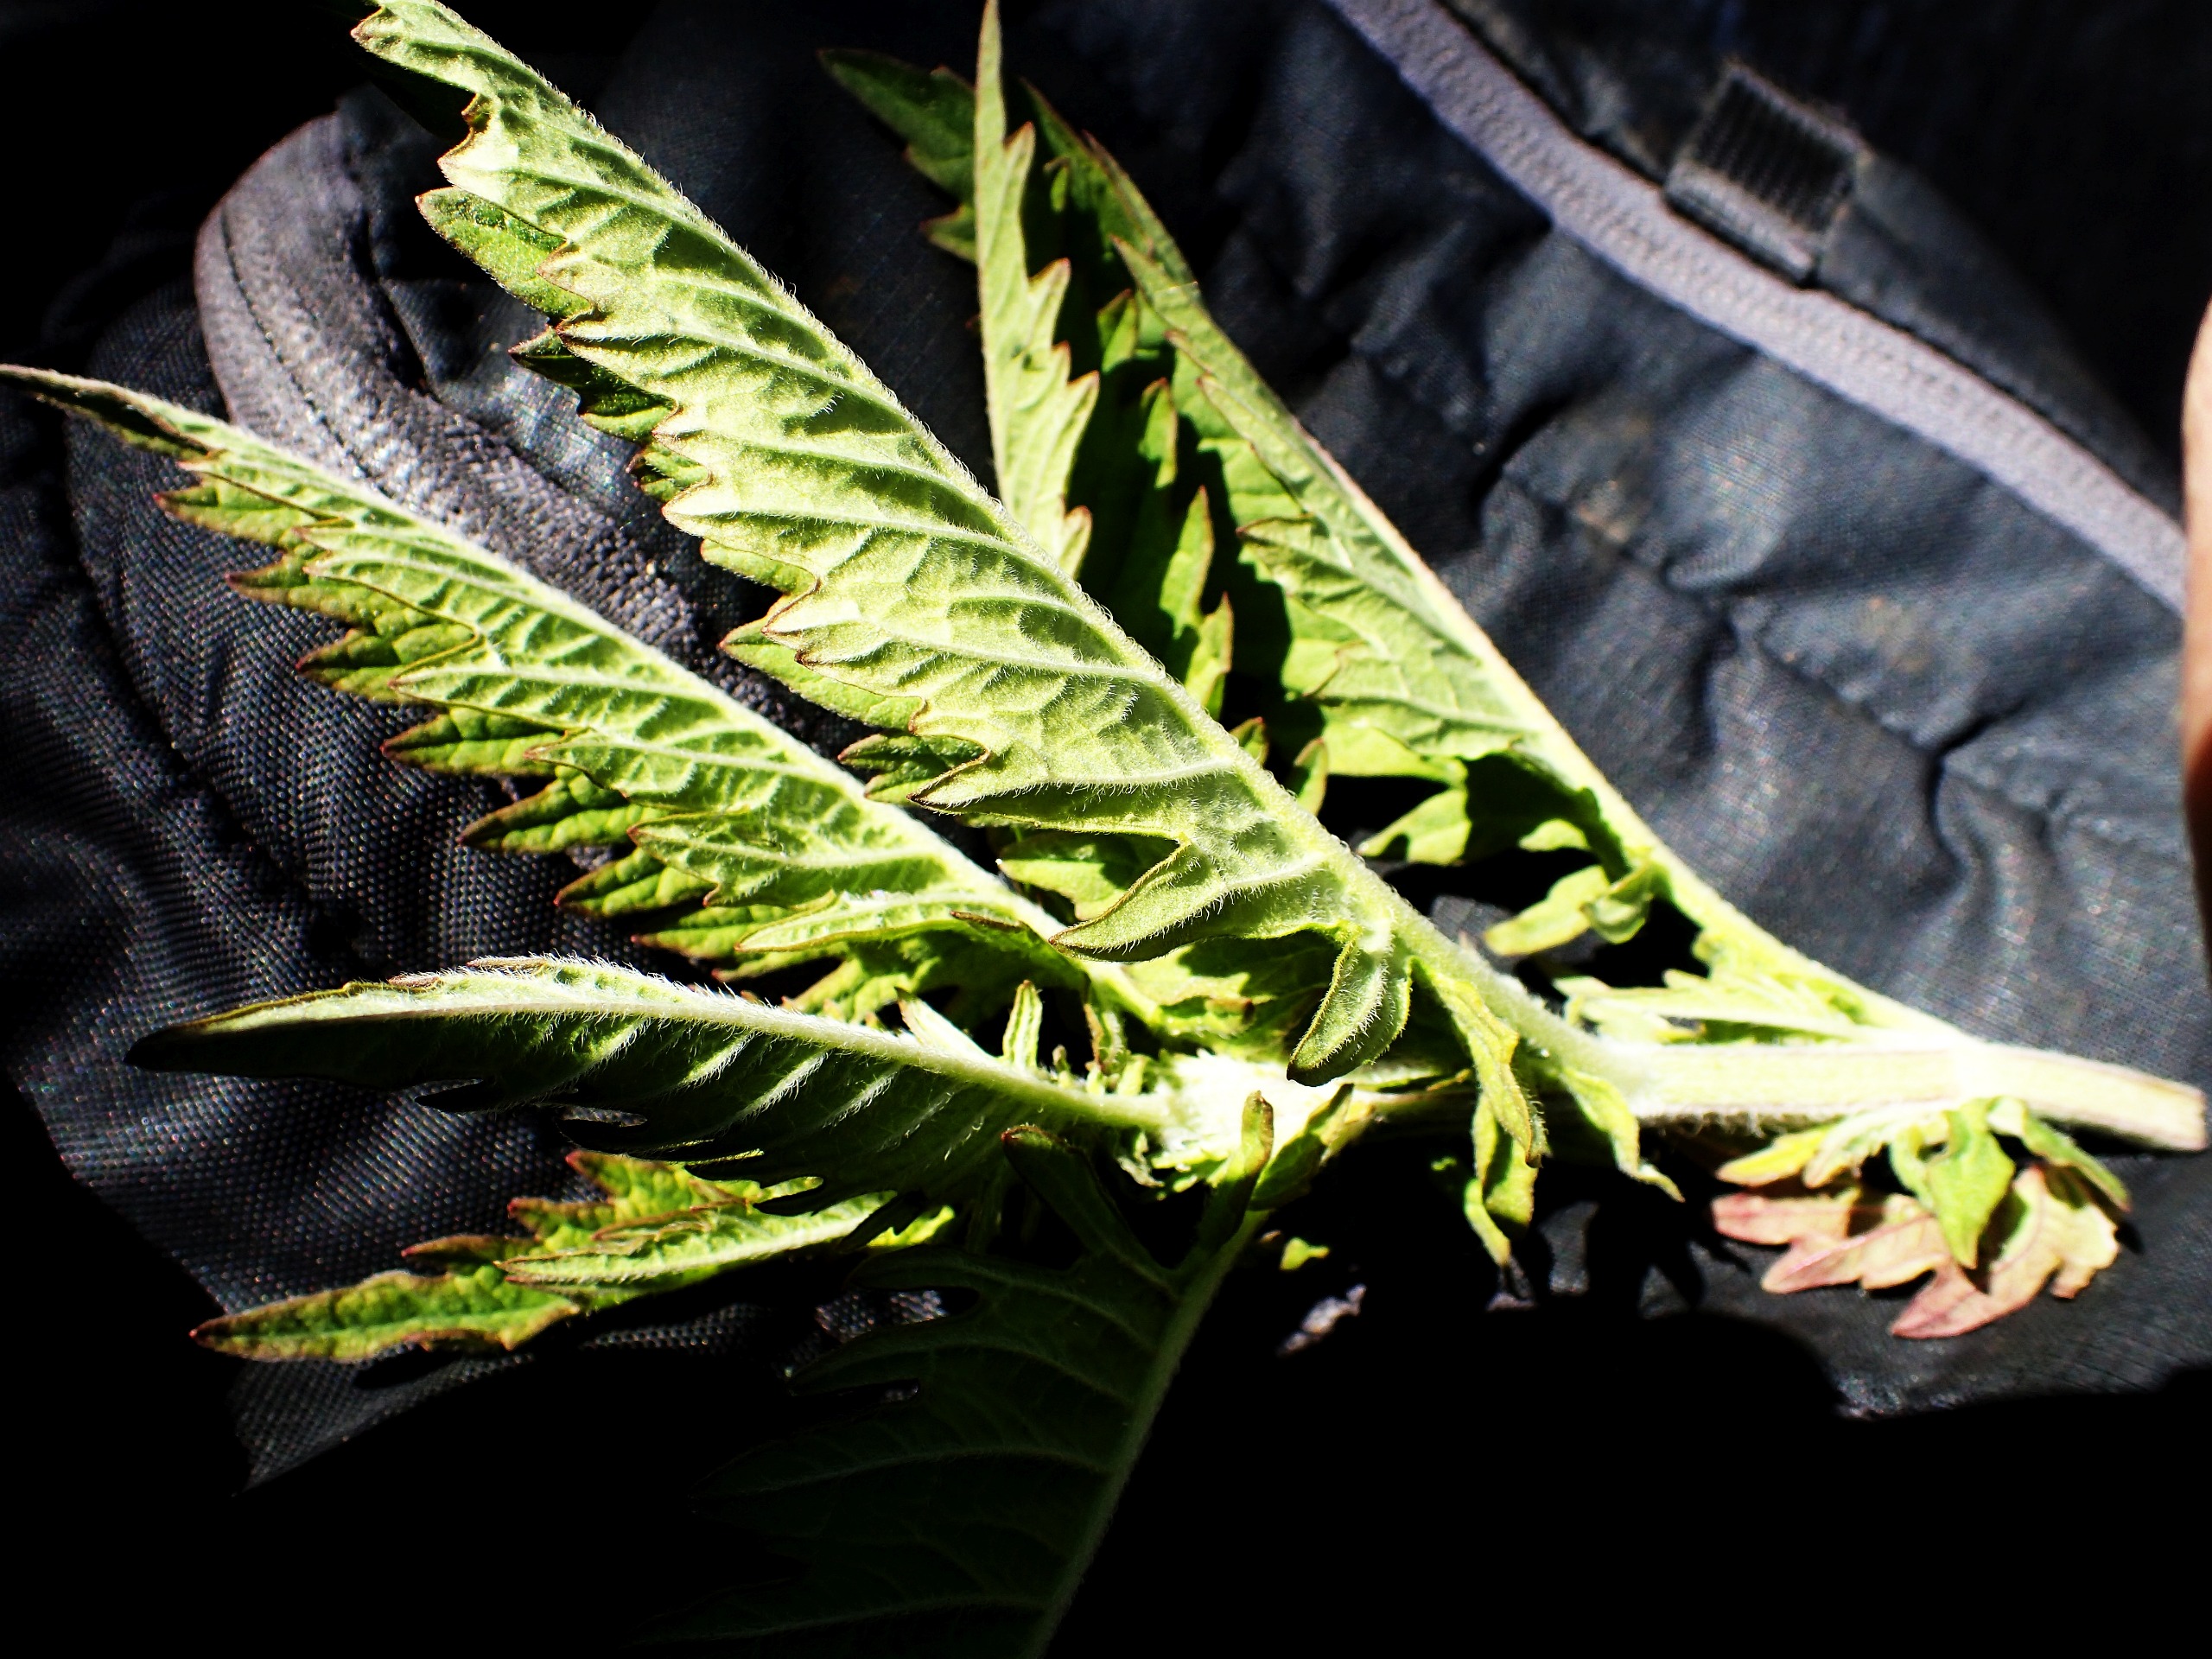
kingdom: Plantae
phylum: Tracheophyta
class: Magnoliopsida
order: Lamiales
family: Lamiaceae
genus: Lycopus
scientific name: Lycopus europaeus
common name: Sværtevæld
